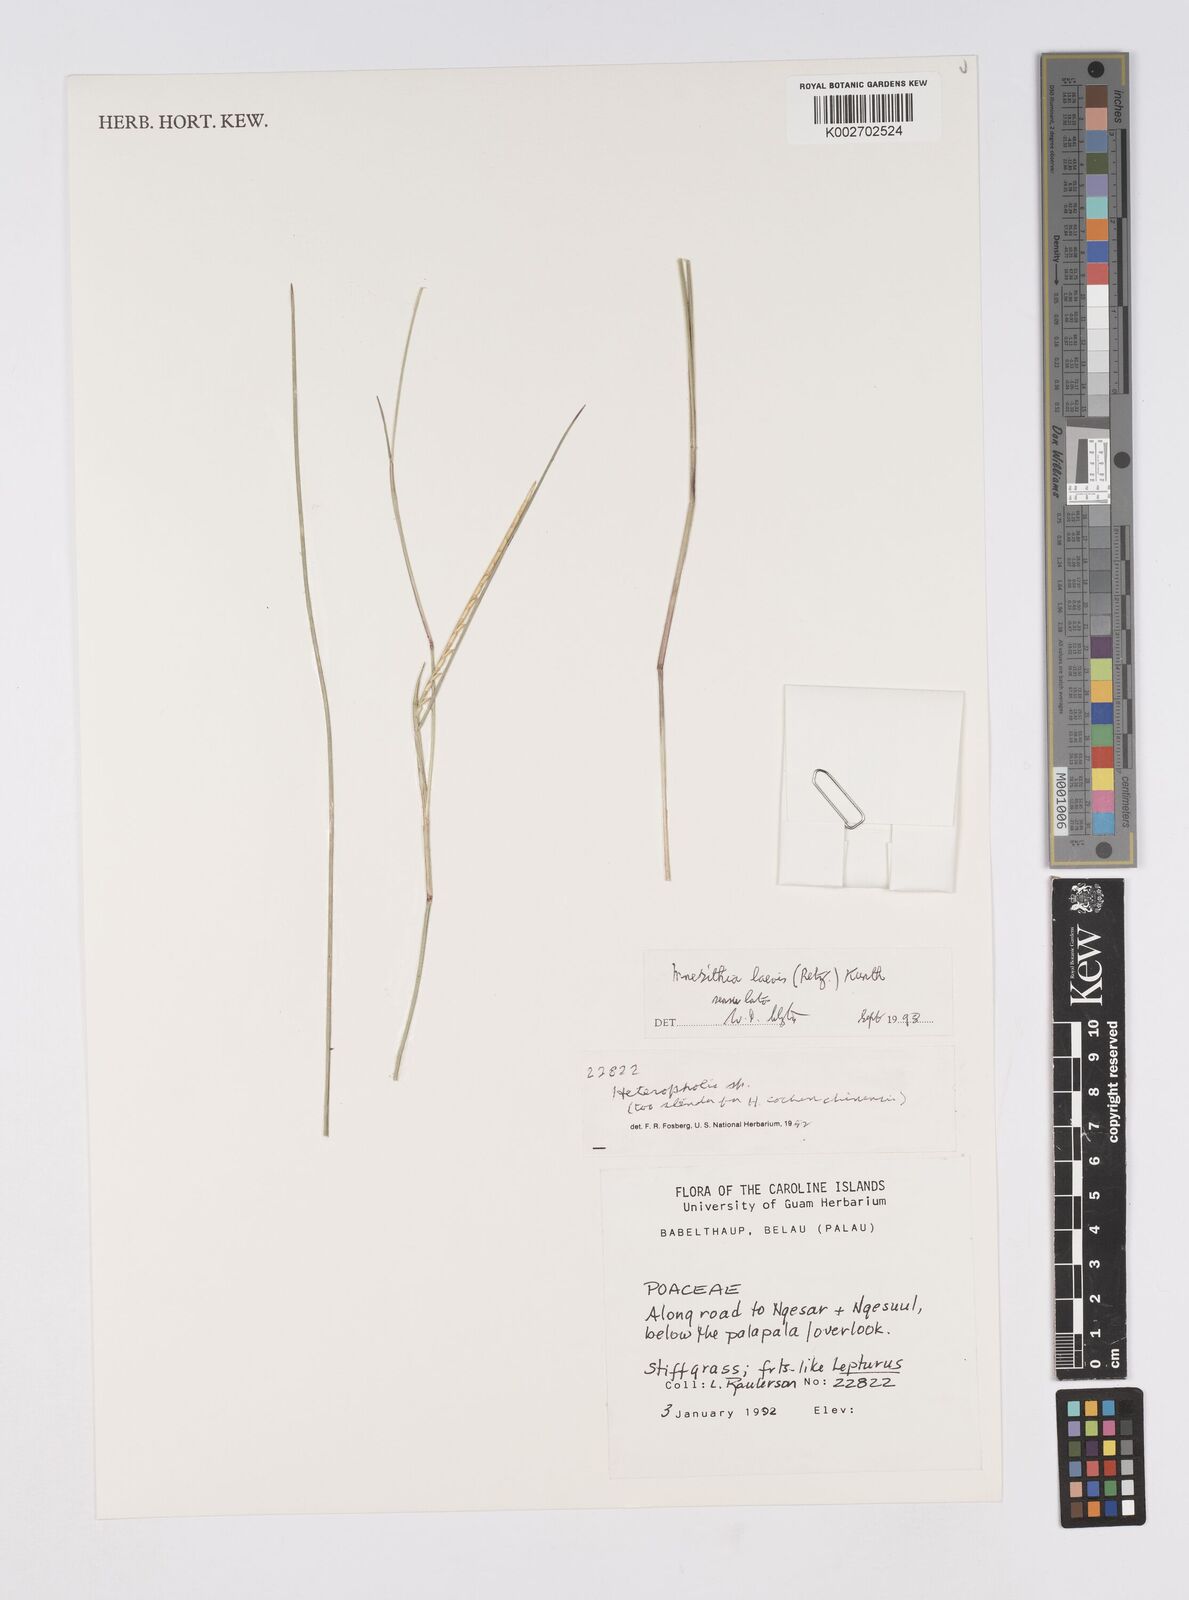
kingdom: Plantae
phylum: Tracheophyta
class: Liliopsida
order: Poales
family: Poaceae
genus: Mnesithea
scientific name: Mnesithea laevis
